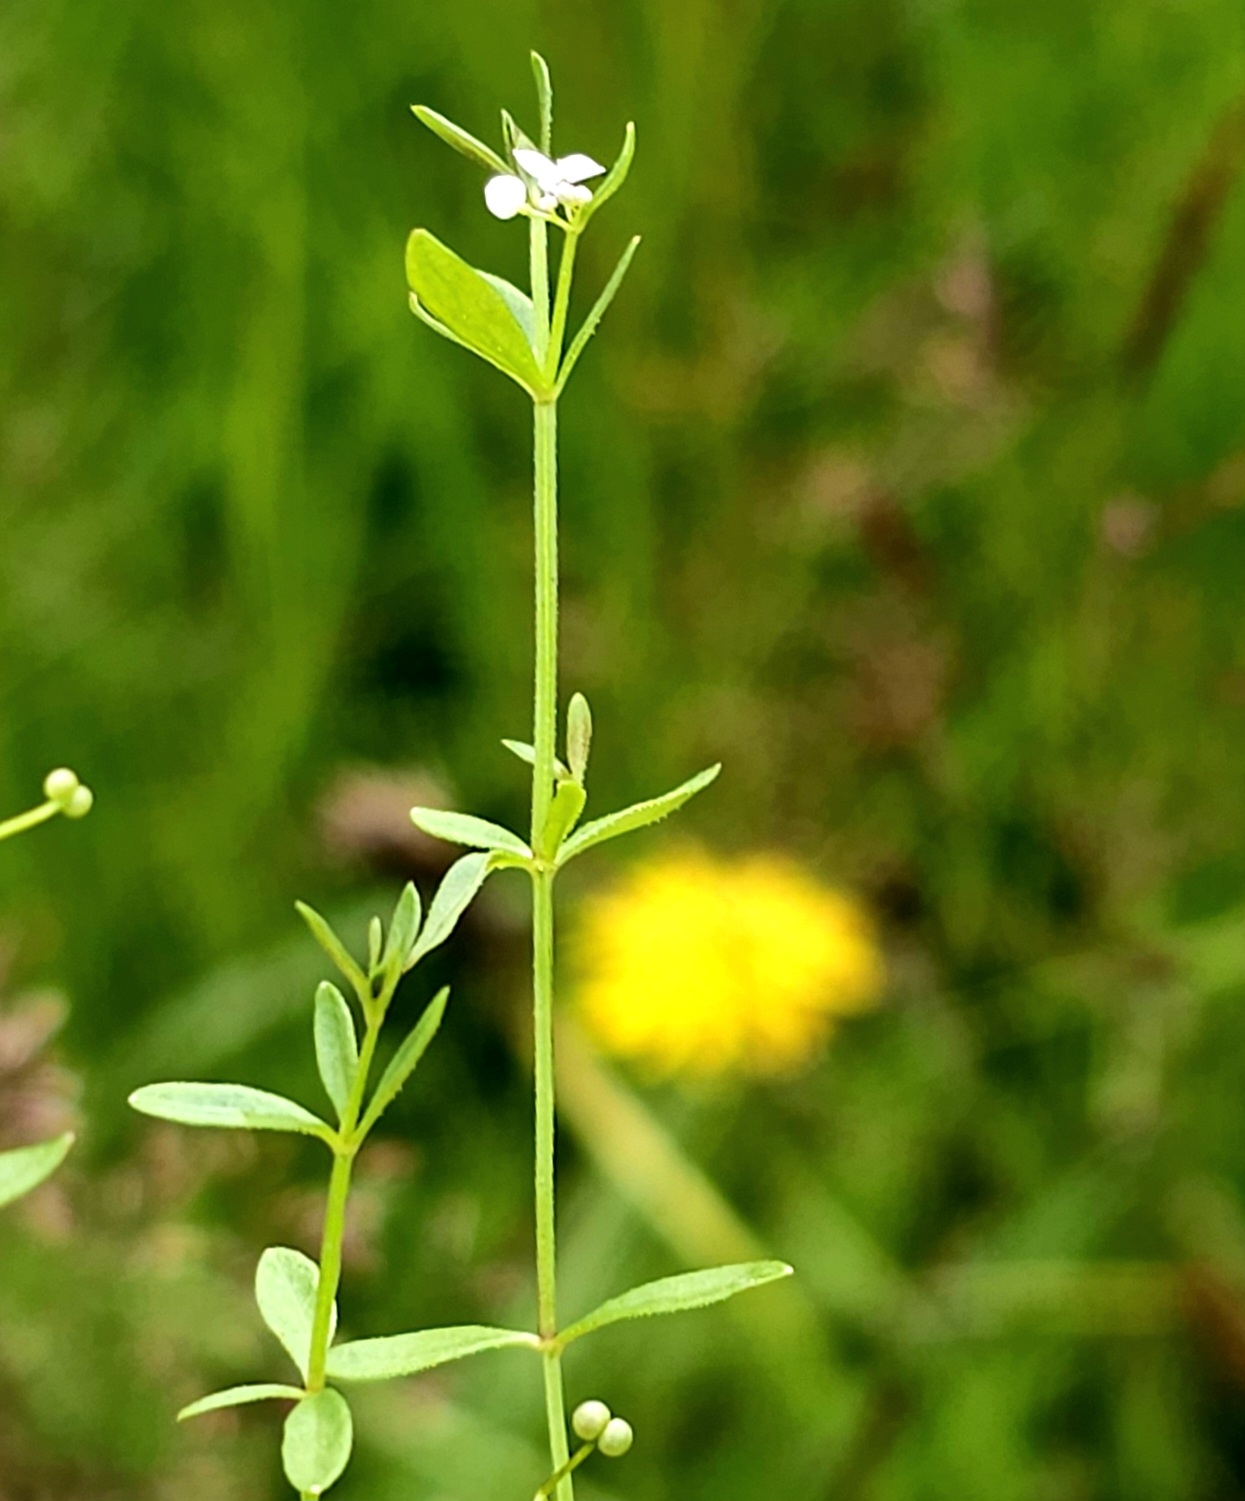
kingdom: Plantae
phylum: Tracheophyta
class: Magnoliopsida
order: Gentianales
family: Rubiaceae
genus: Galium
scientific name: Galium palustre
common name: Kær-snerre
